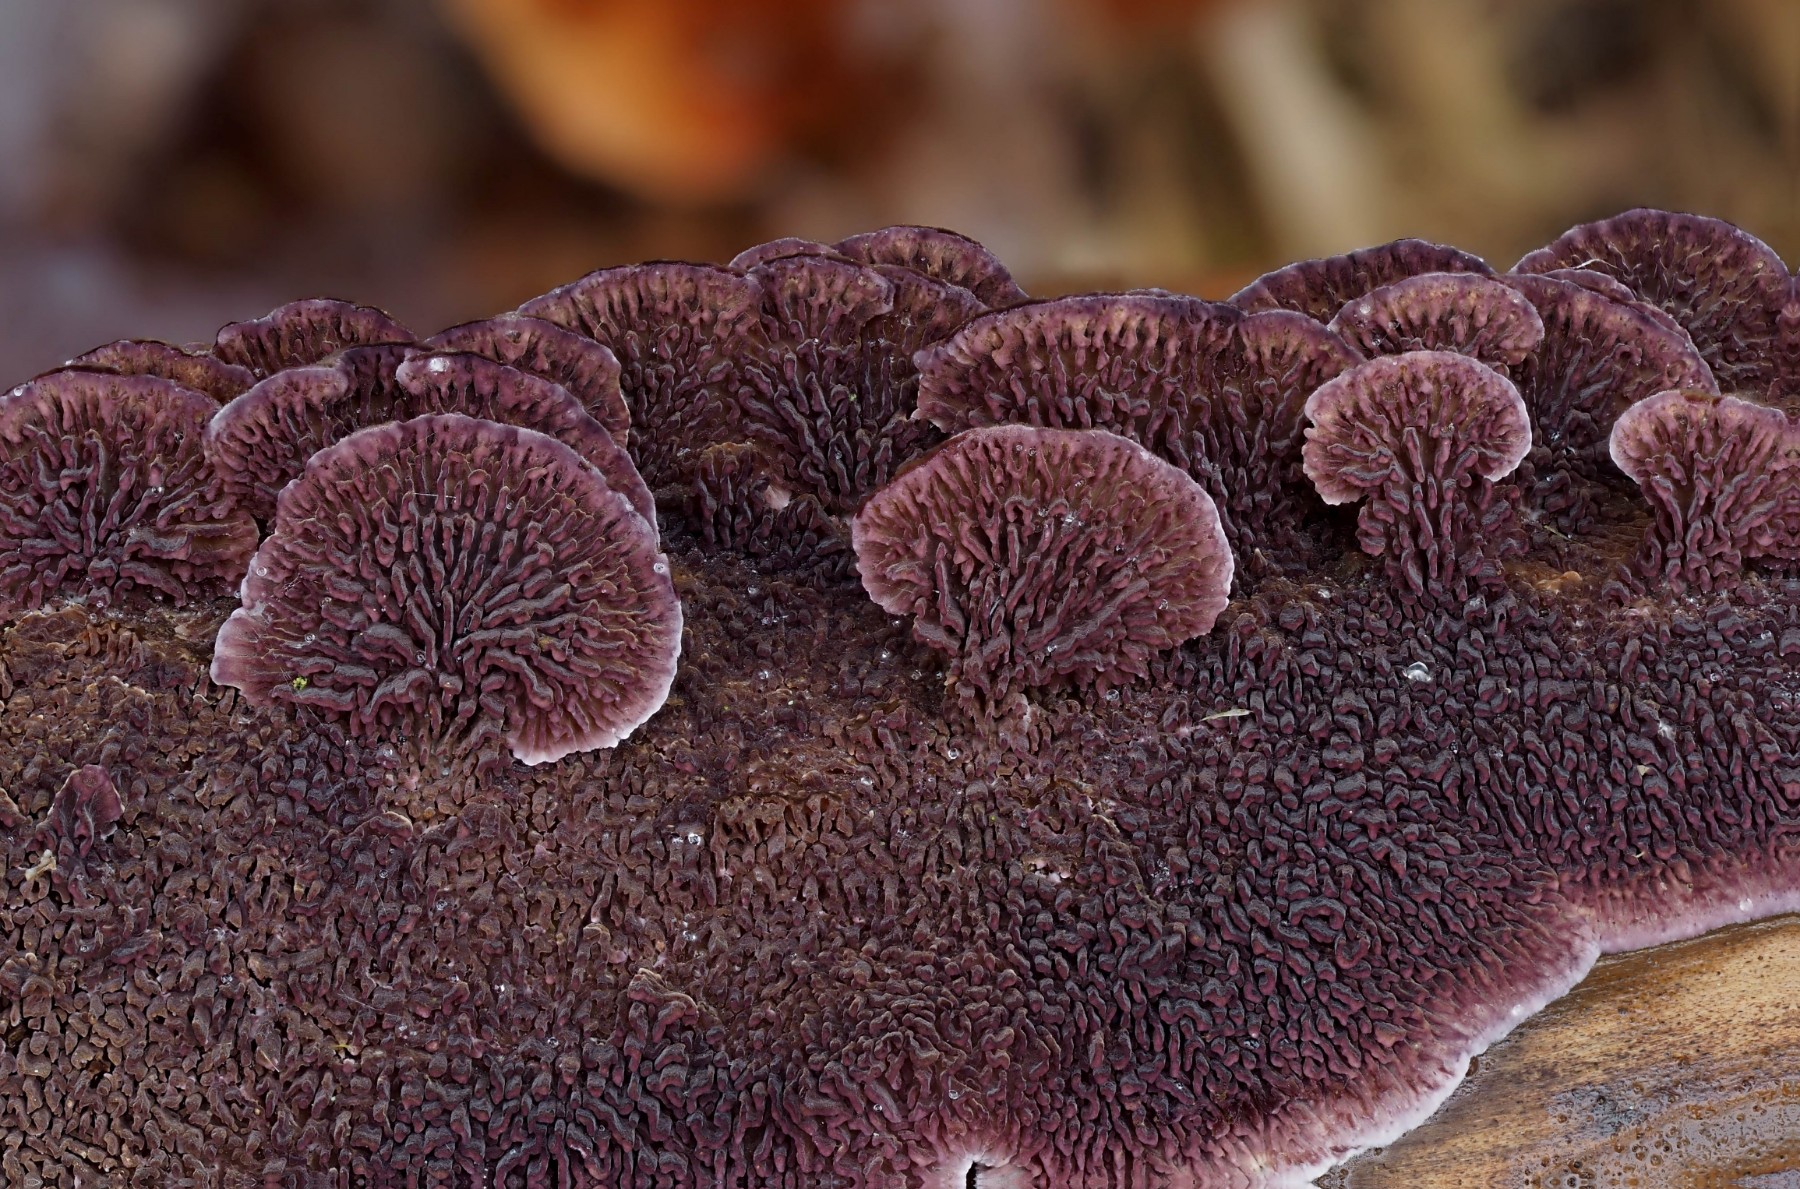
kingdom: Fungi
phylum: Basidiomycota
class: Agaricomycetes
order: Hymenochaetales
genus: Trichaptum
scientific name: Trichaptum fuscoviolaceum
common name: tandet violporesvamp
